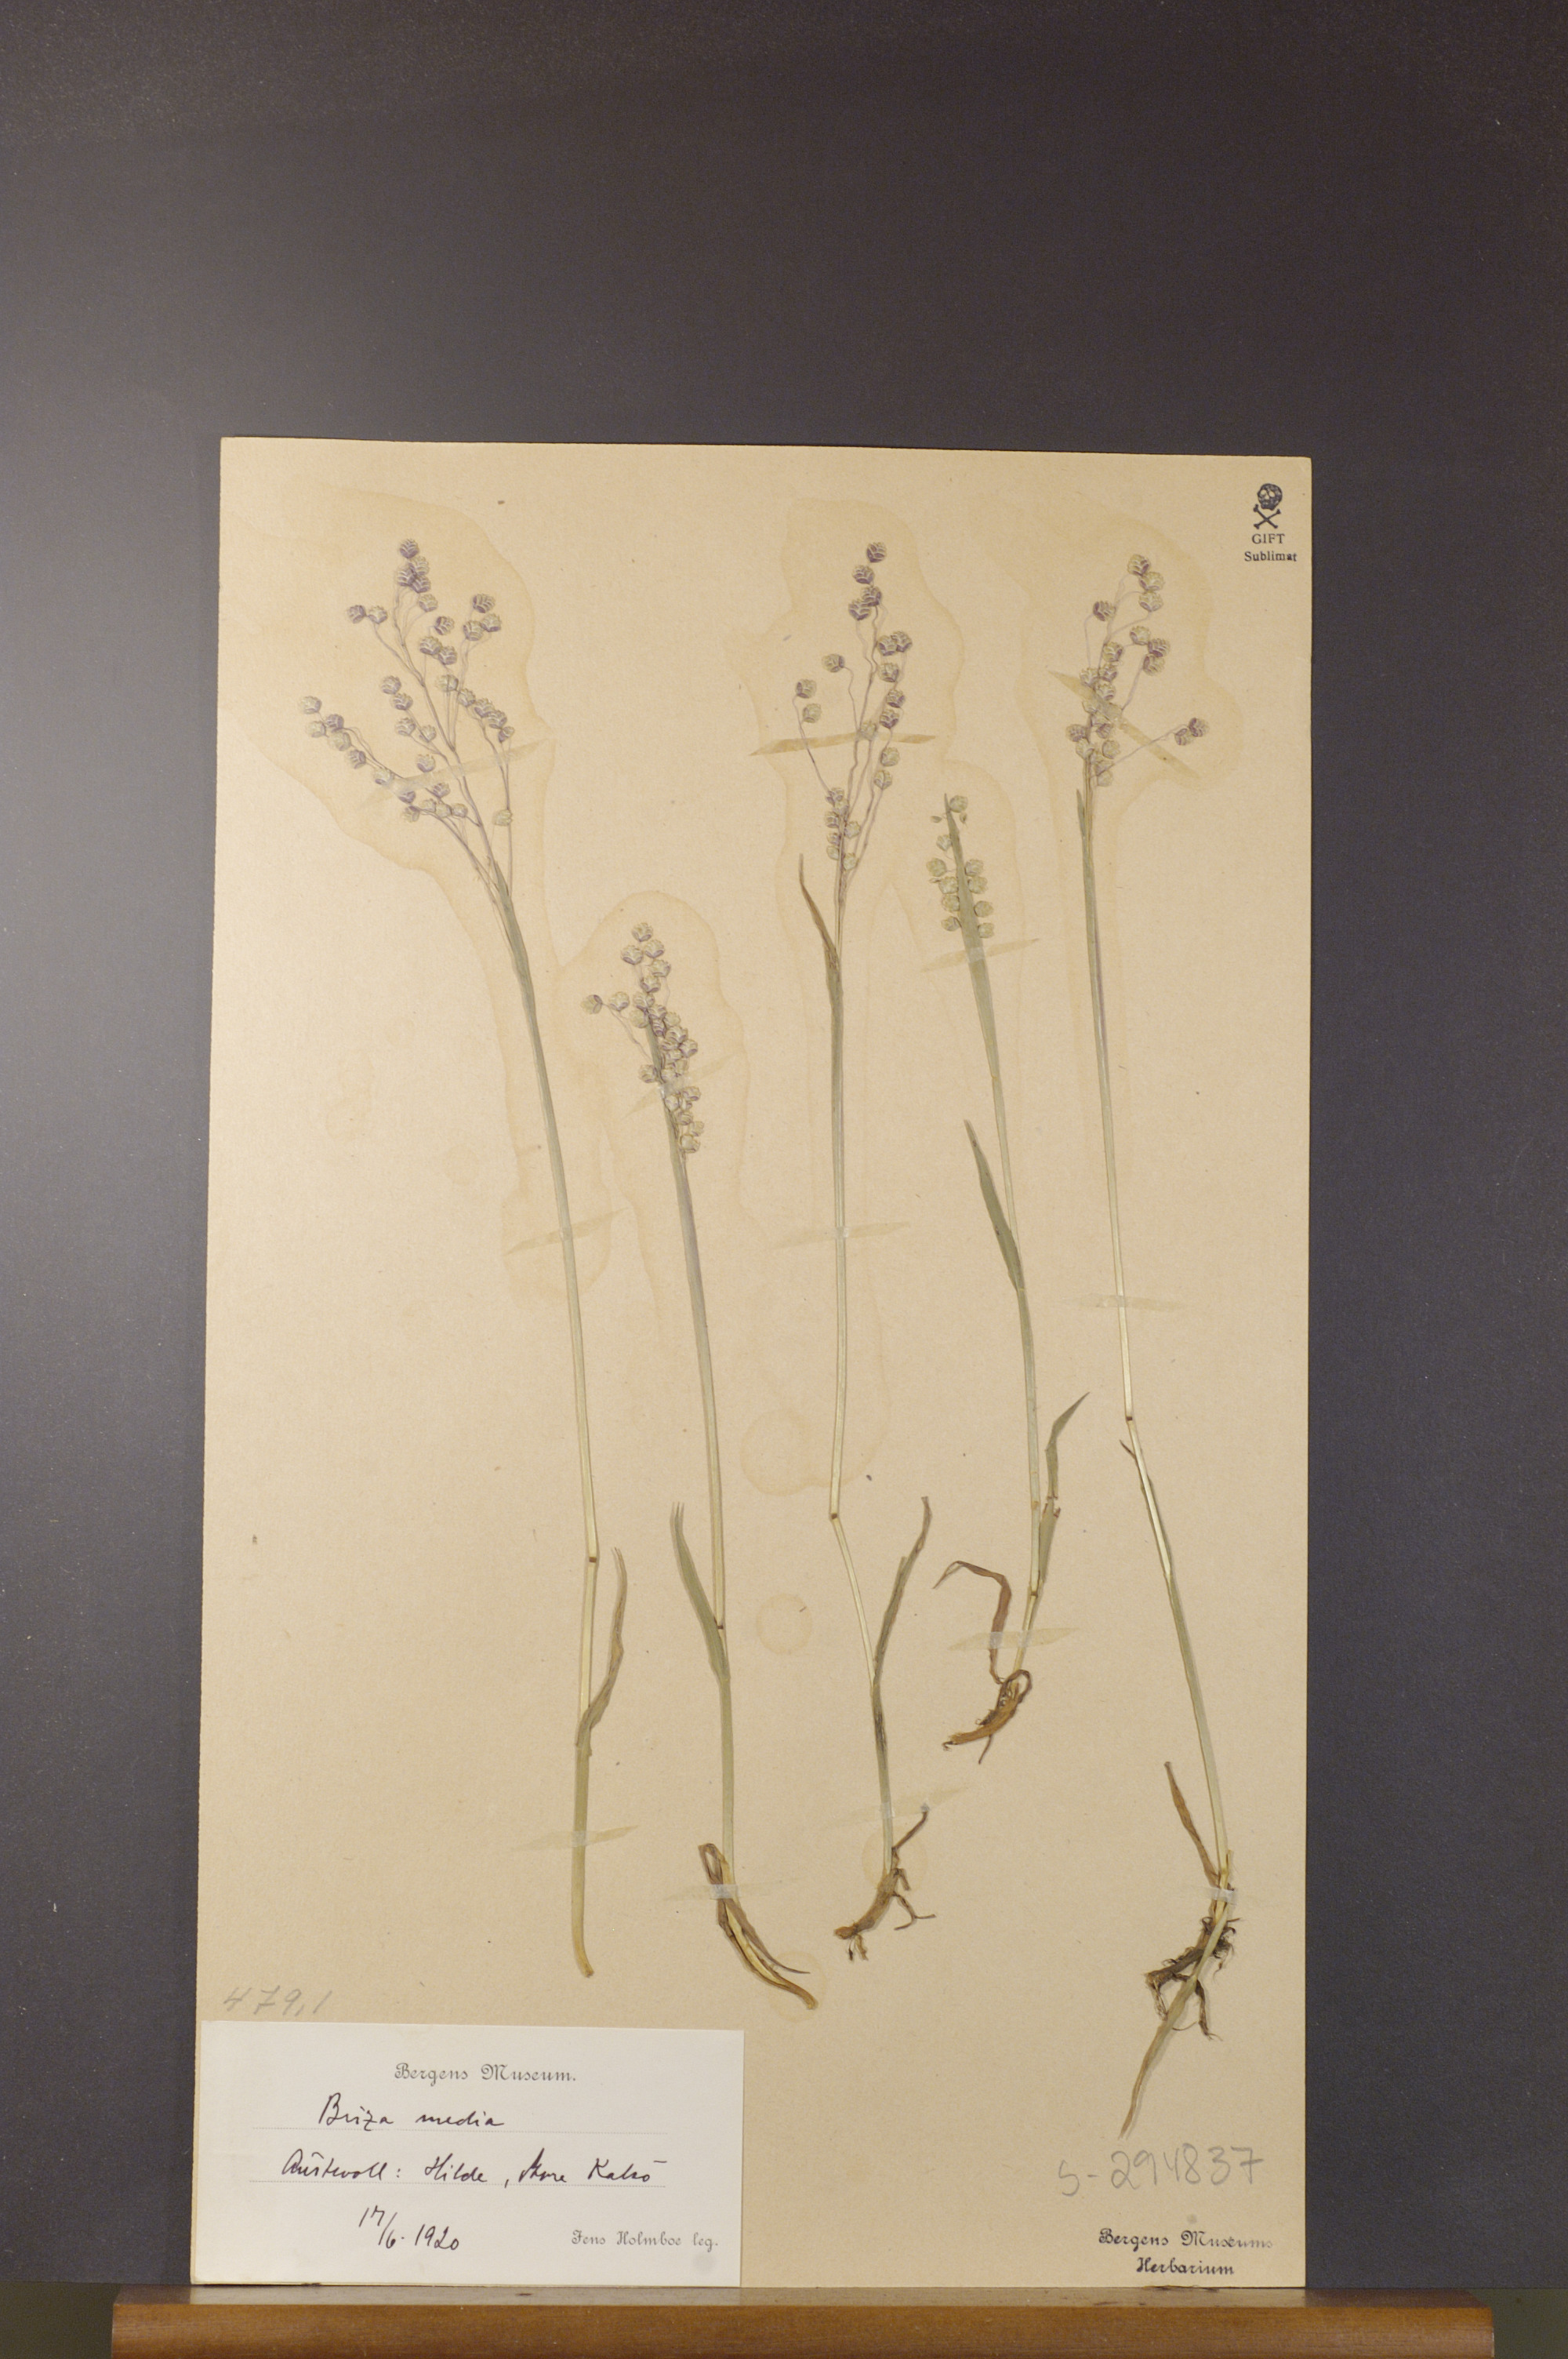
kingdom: Plantae
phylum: Tracheophyta
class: Liliopsida
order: Poales
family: Poaceae
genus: Briza
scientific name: Briza media
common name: Quaking grass
